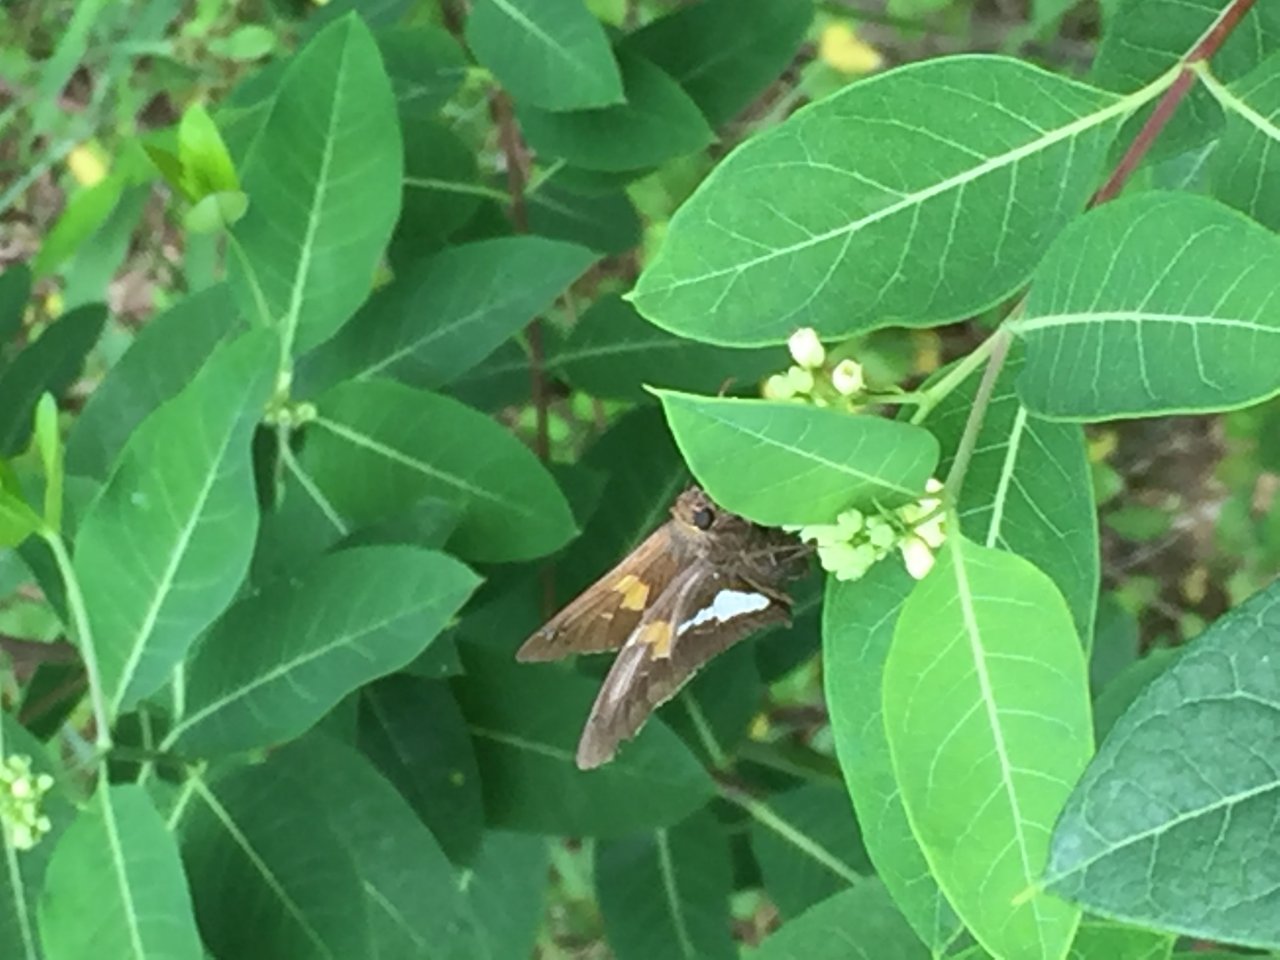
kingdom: Animalia
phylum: Arthropoda
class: Insecta
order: Lepidoptera
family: Hesperiidae
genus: Epargyreus
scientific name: Epargyreus clarus
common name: Silver-spotted Skipper
